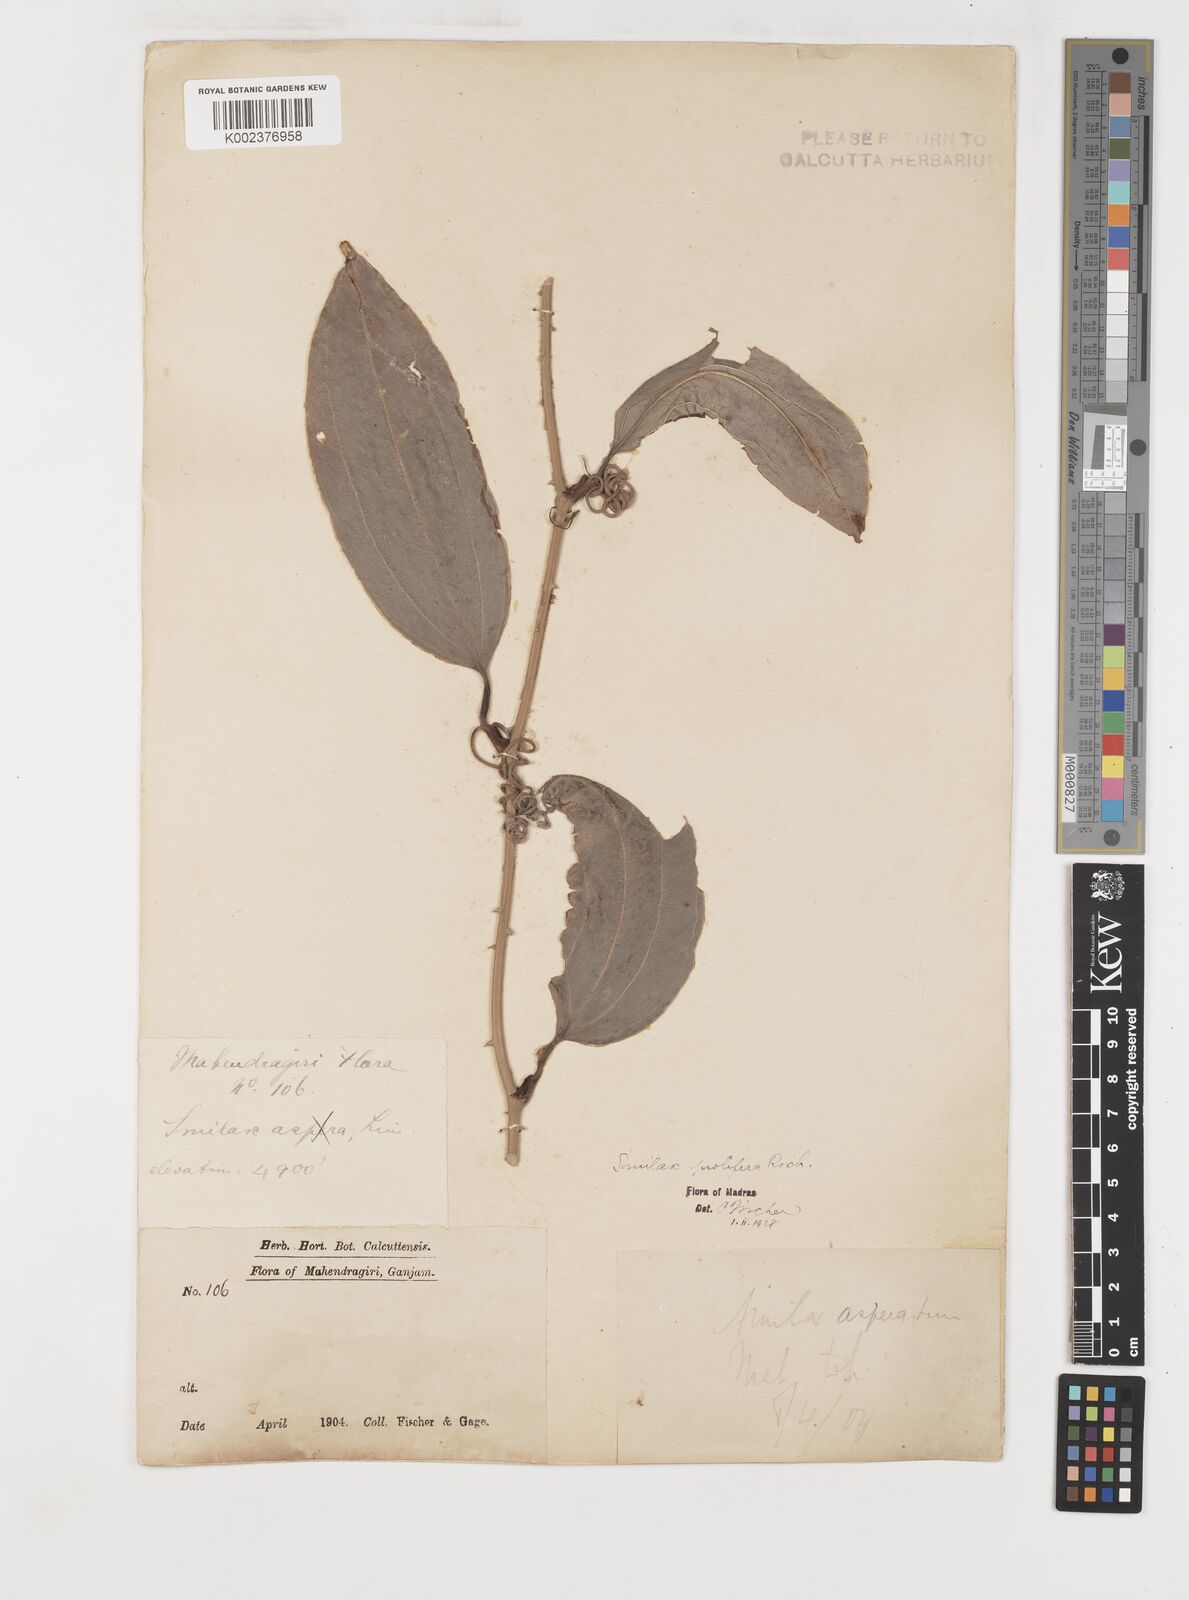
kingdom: Plantae
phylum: Tracheophyta
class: Liliopsida
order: Liliales
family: Smilacaceae
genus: Smilax
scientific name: Smilax
